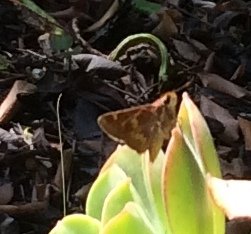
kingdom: Animalia
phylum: Arthropoda
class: Insecta
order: Lepidoptera
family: Hesperiidae
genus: Lon
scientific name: Lon melane
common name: Umber Skipper
